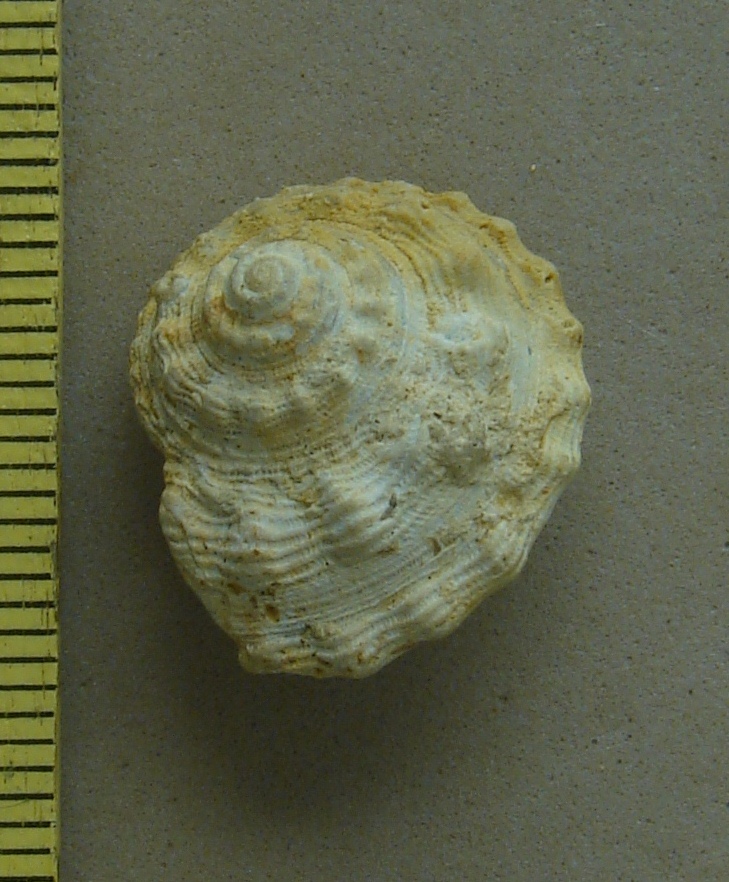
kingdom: Animalia
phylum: Mollusca
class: Gastropoda
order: Pleurotomariida
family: Pleurotomariidae
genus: Pleurotomaria
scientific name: Pleurotomaria
